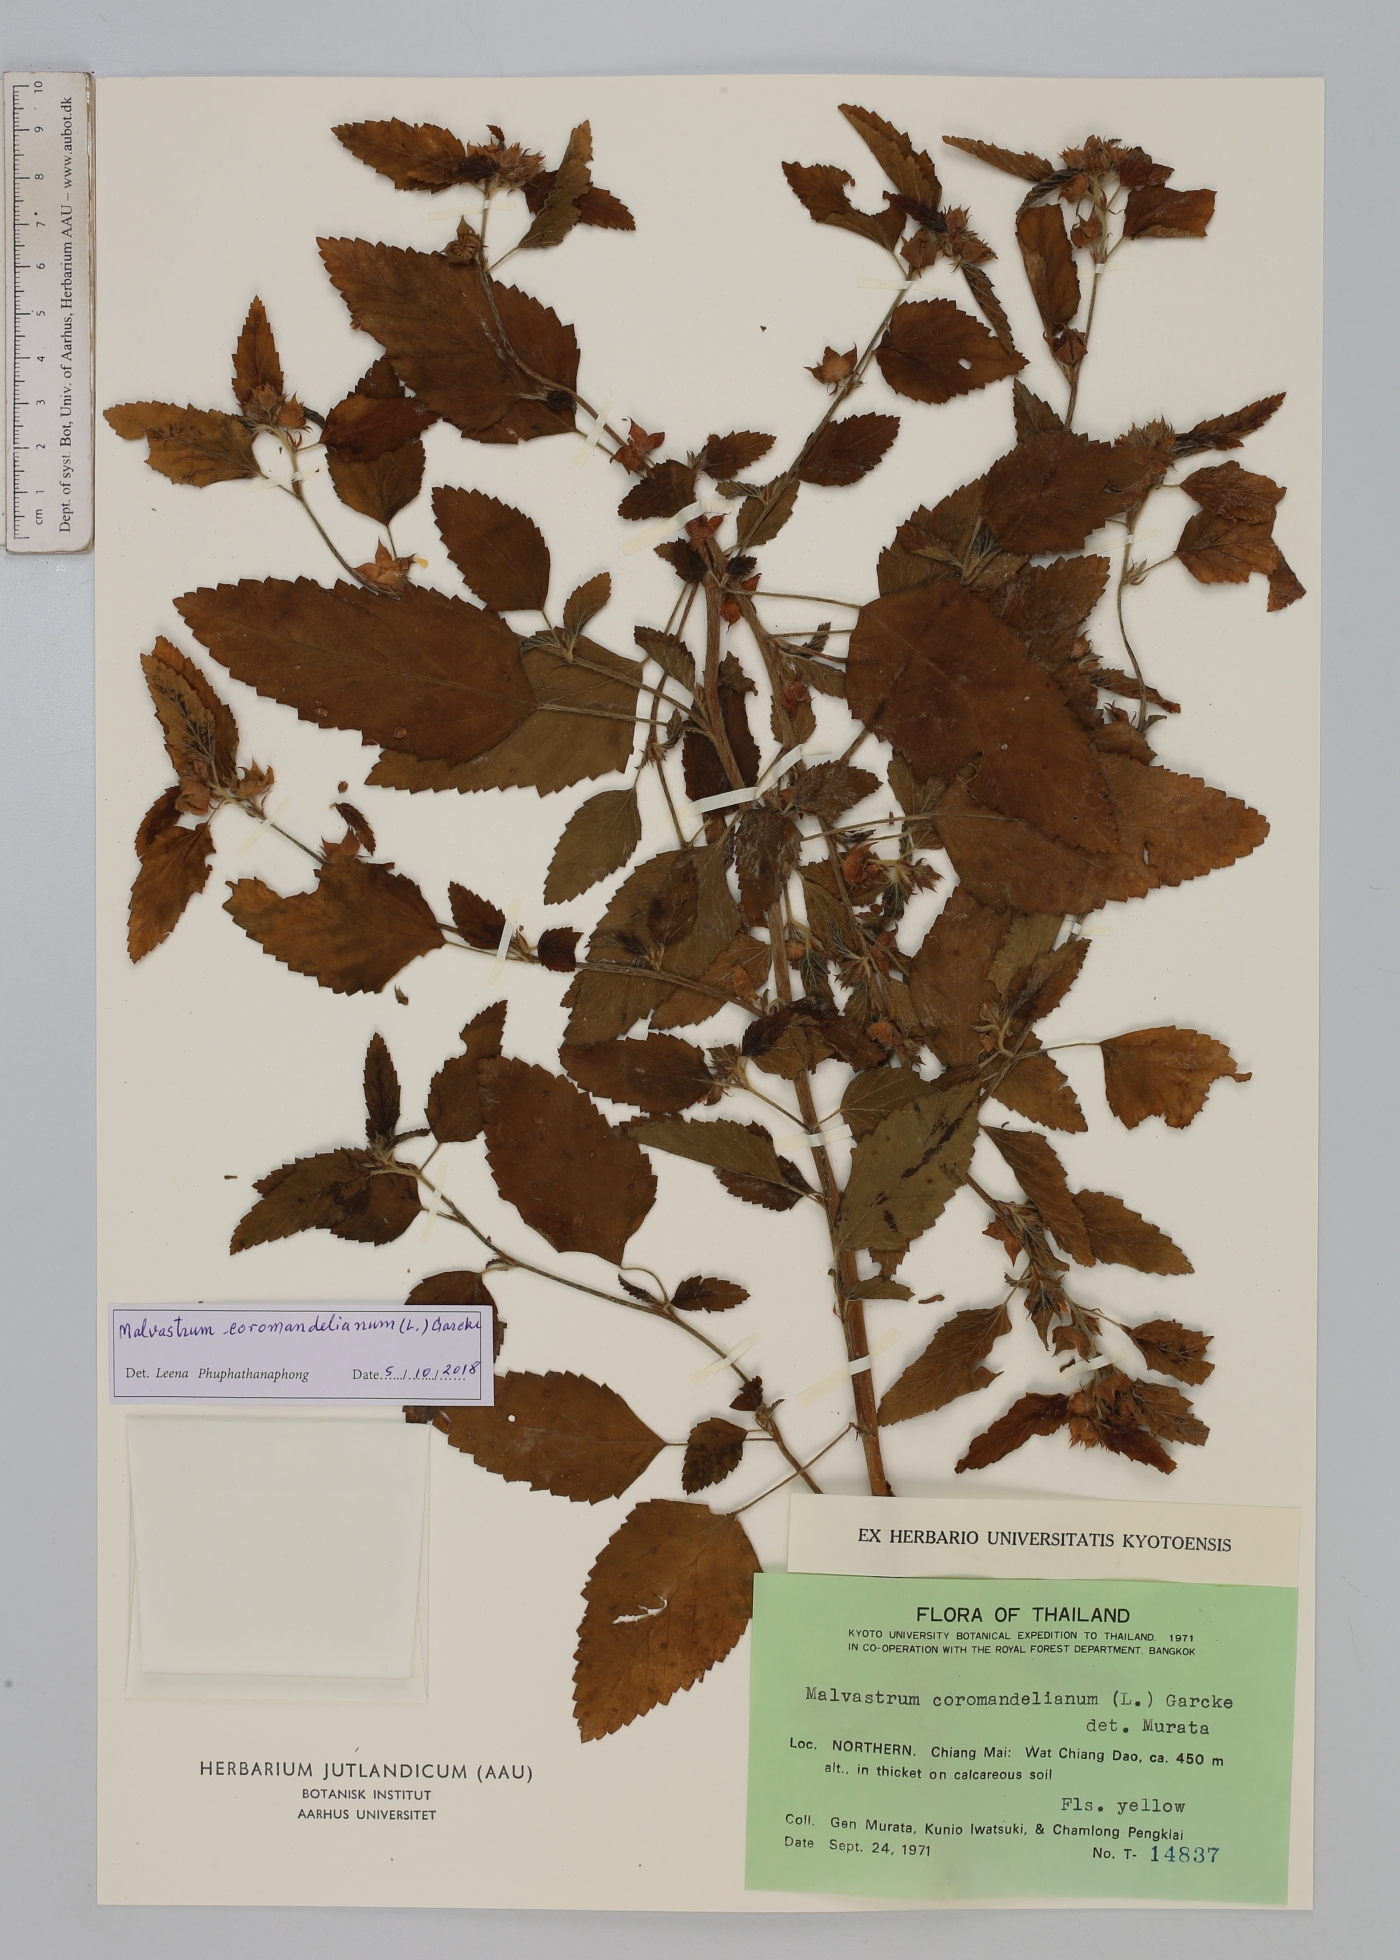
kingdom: Plantae
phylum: Tracheophyta
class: Magnoliopsida
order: Malvales
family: Malvaceae
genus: Malvastrum
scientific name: Malvastrum coromandelianum
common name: Threelobe false mallow
